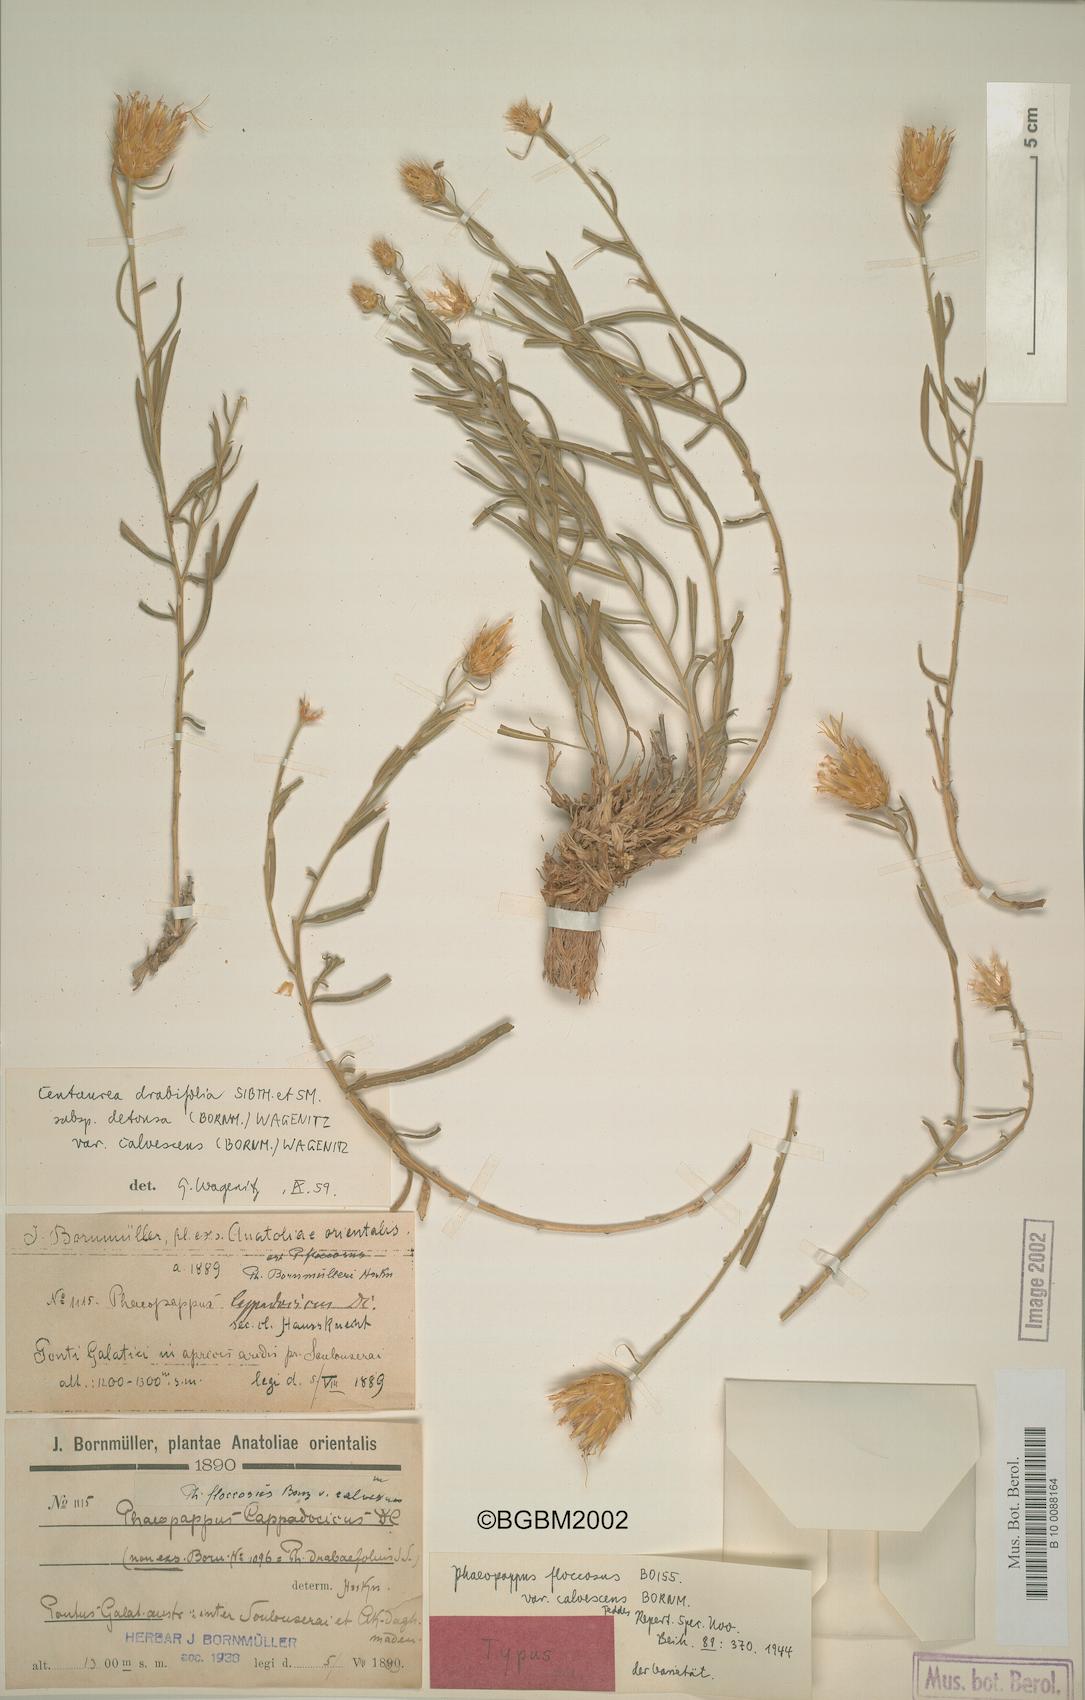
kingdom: Plantae
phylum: Tracheophyta
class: Magnoliopsida
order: Asterales
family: Asteraceae
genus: Centaurea
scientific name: Centaurea kotschyi
